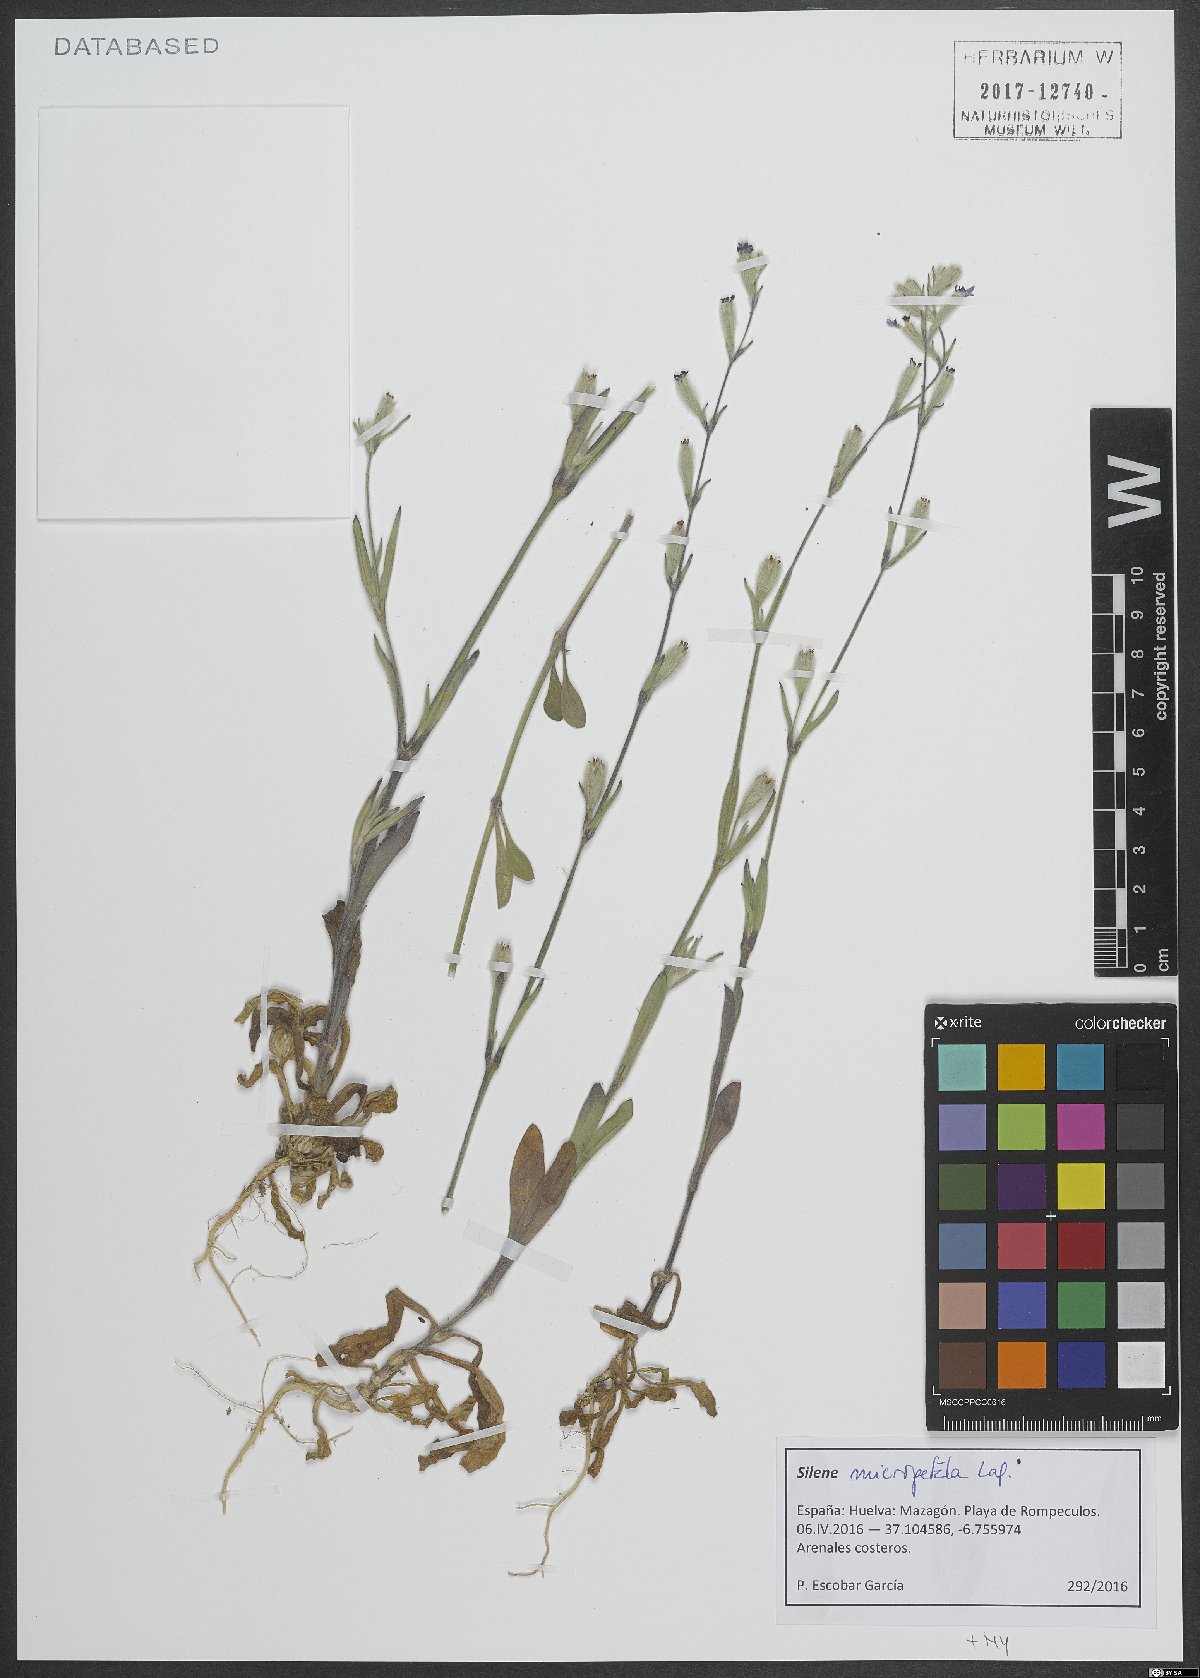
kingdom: Plantae
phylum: Tracheophyta
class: Magnoliopsida
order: Caryophyllales
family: Caryophyllaceae
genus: Silene
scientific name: Silene micropetala
